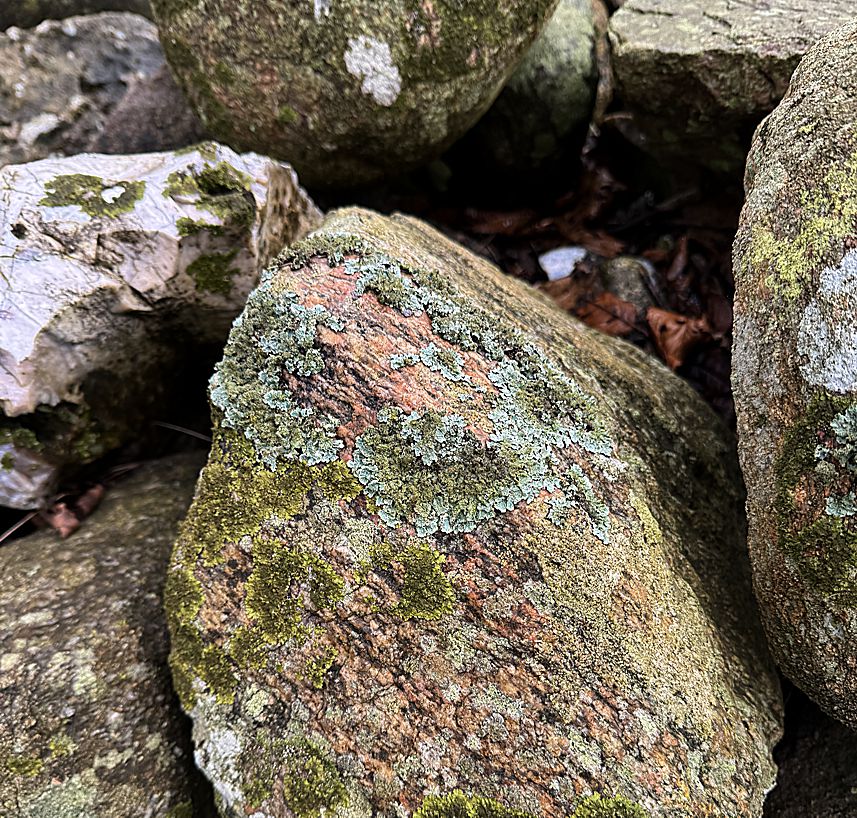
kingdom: Fungi
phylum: Ascomycota
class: Lecanoromycetes
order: Lecanorales
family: Parmeliaceae
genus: Parmelia
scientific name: Parmelia saxatilis
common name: farve-skållav
